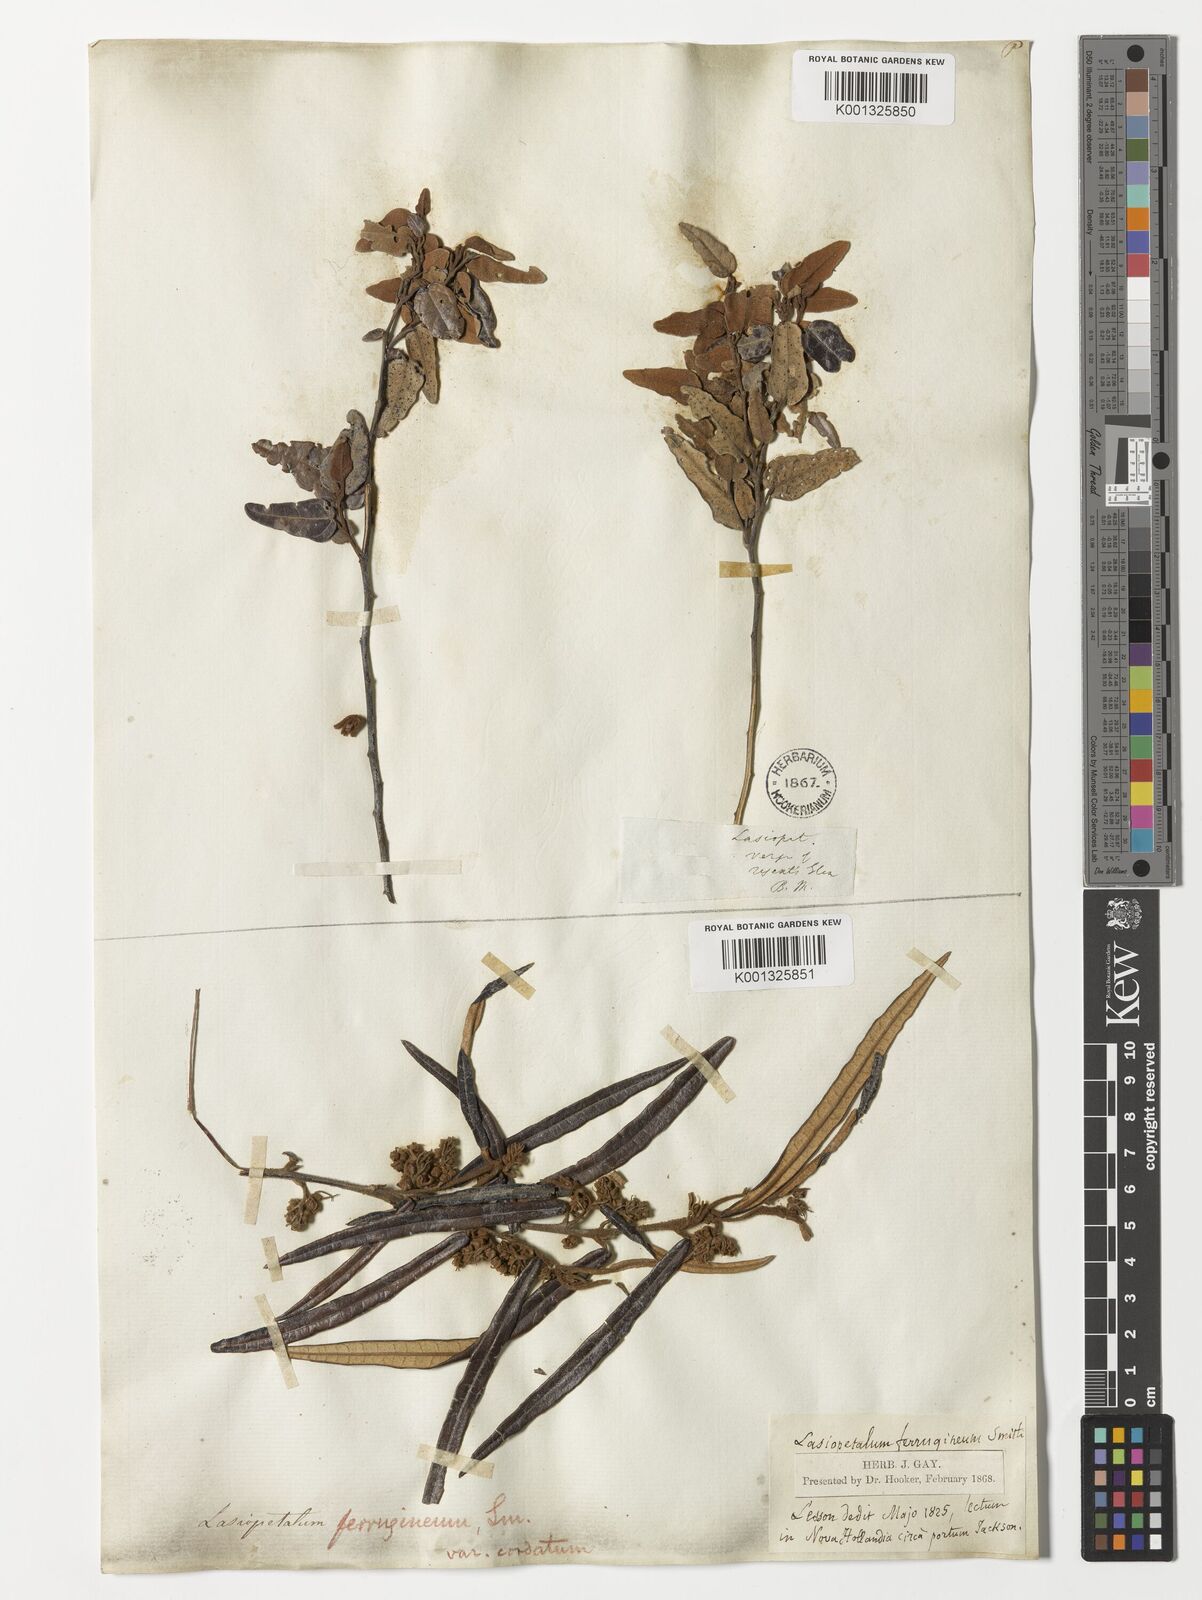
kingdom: Plantae
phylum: Tracheophyta
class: Magnoliopsida
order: Malvales
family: Malvaceae
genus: Lasiopetalum
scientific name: Lasiopetalum
